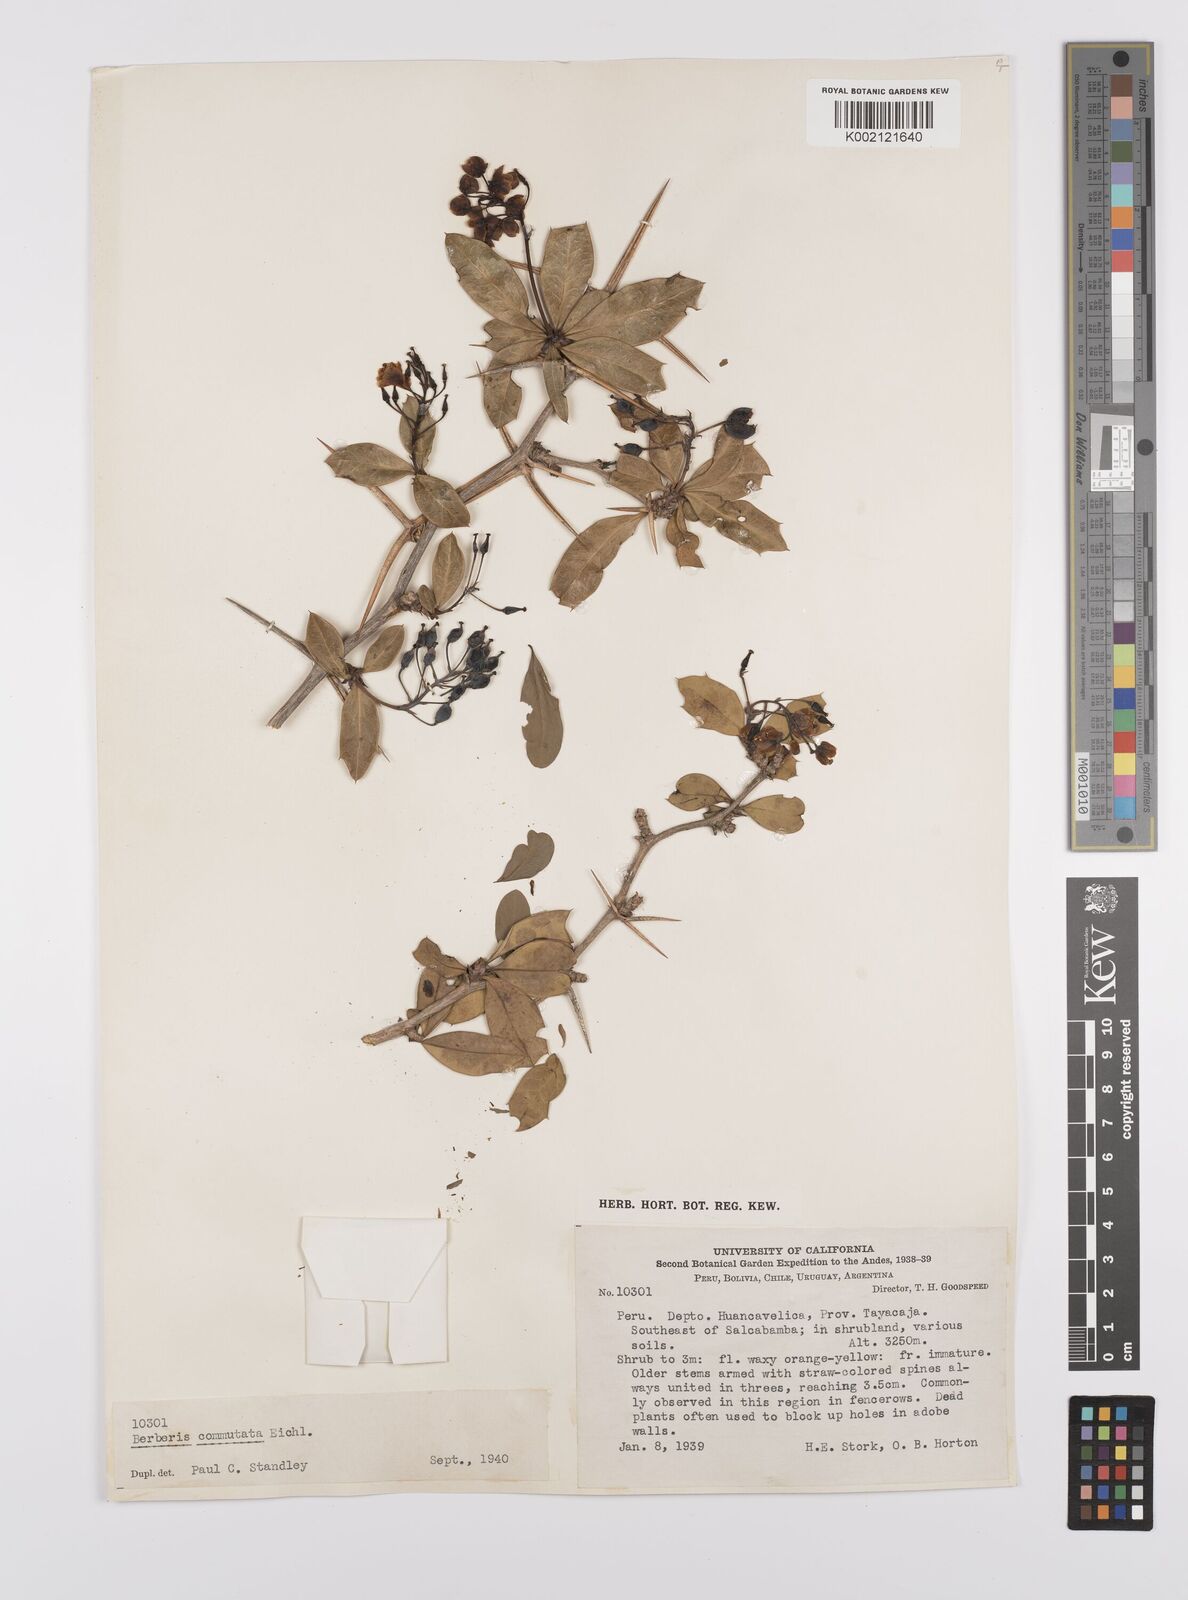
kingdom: Plantae
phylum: Tracheophyta
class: Magnoliopsida
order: Ranunculales
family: Berberidaceae
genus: Berberis
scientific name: Berberis commutata
